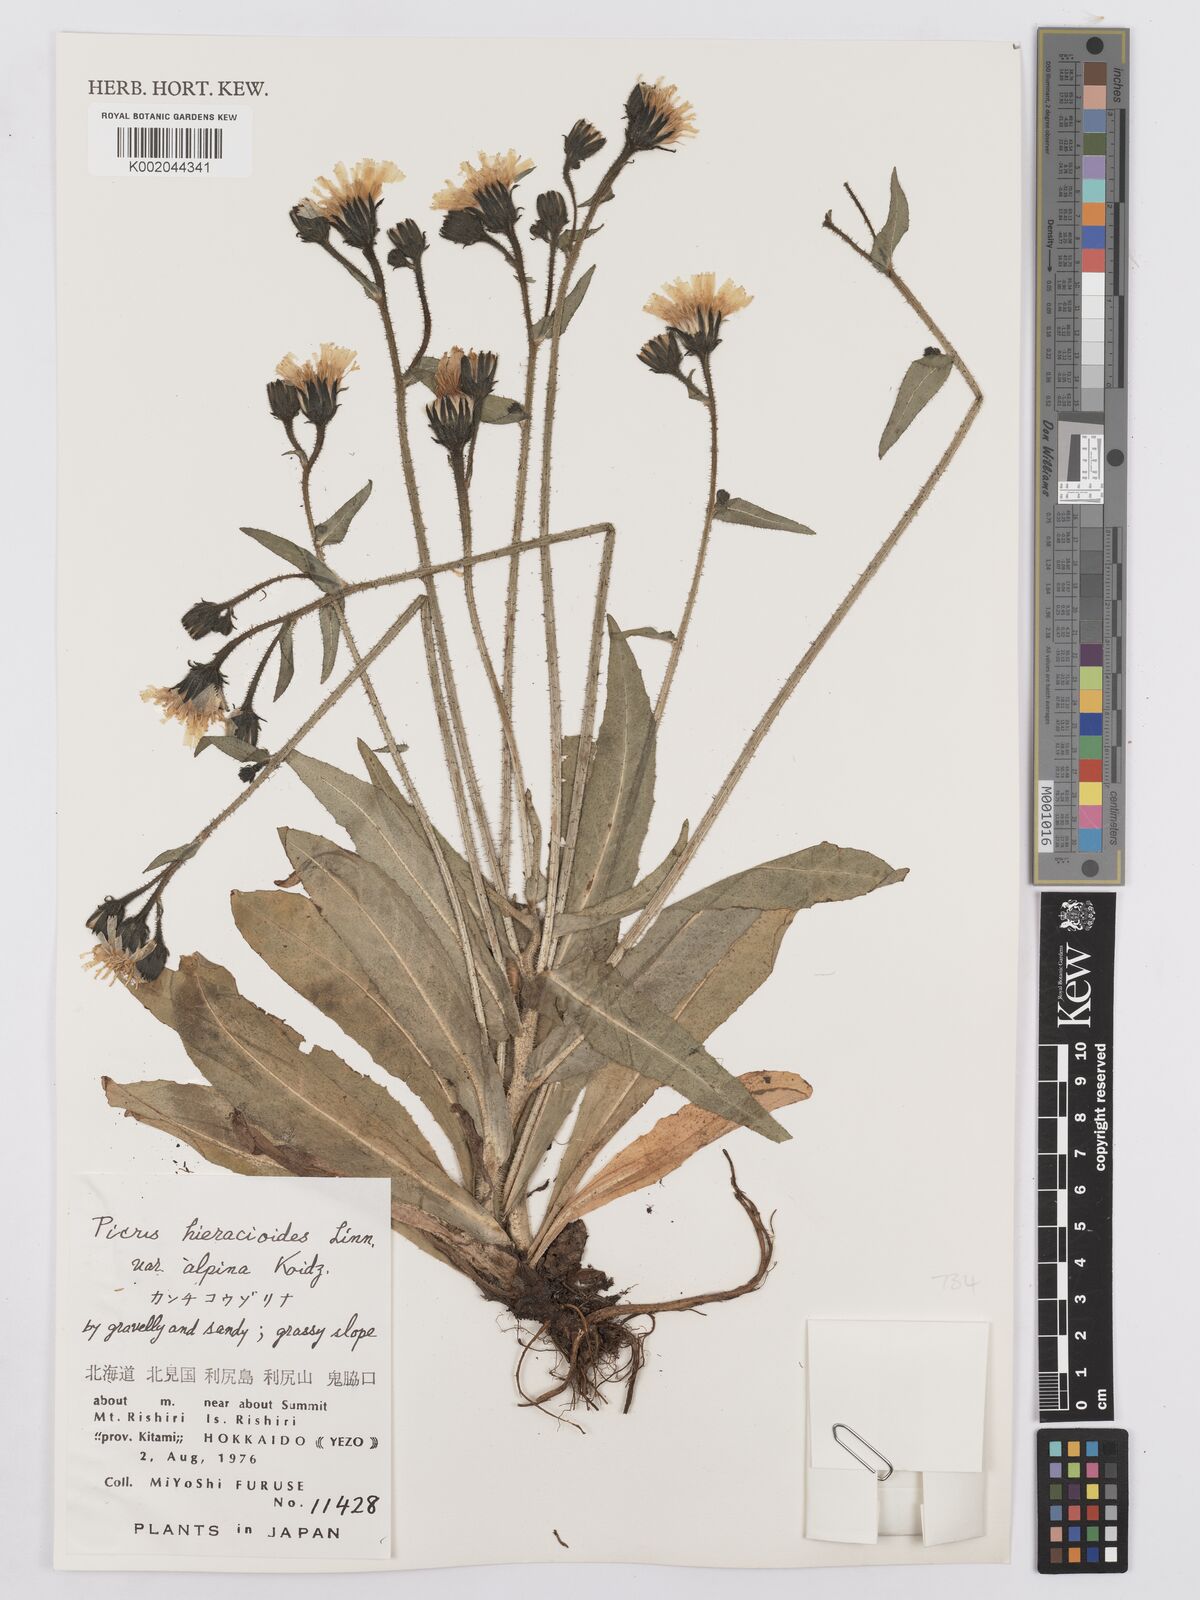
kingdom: Plantae
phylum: Tracheophyta
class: Magnoliopsida
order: Asterales
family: Asteraceae
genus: Picris
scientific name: Picris hieracioides
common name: Hawkweed oxtongue
